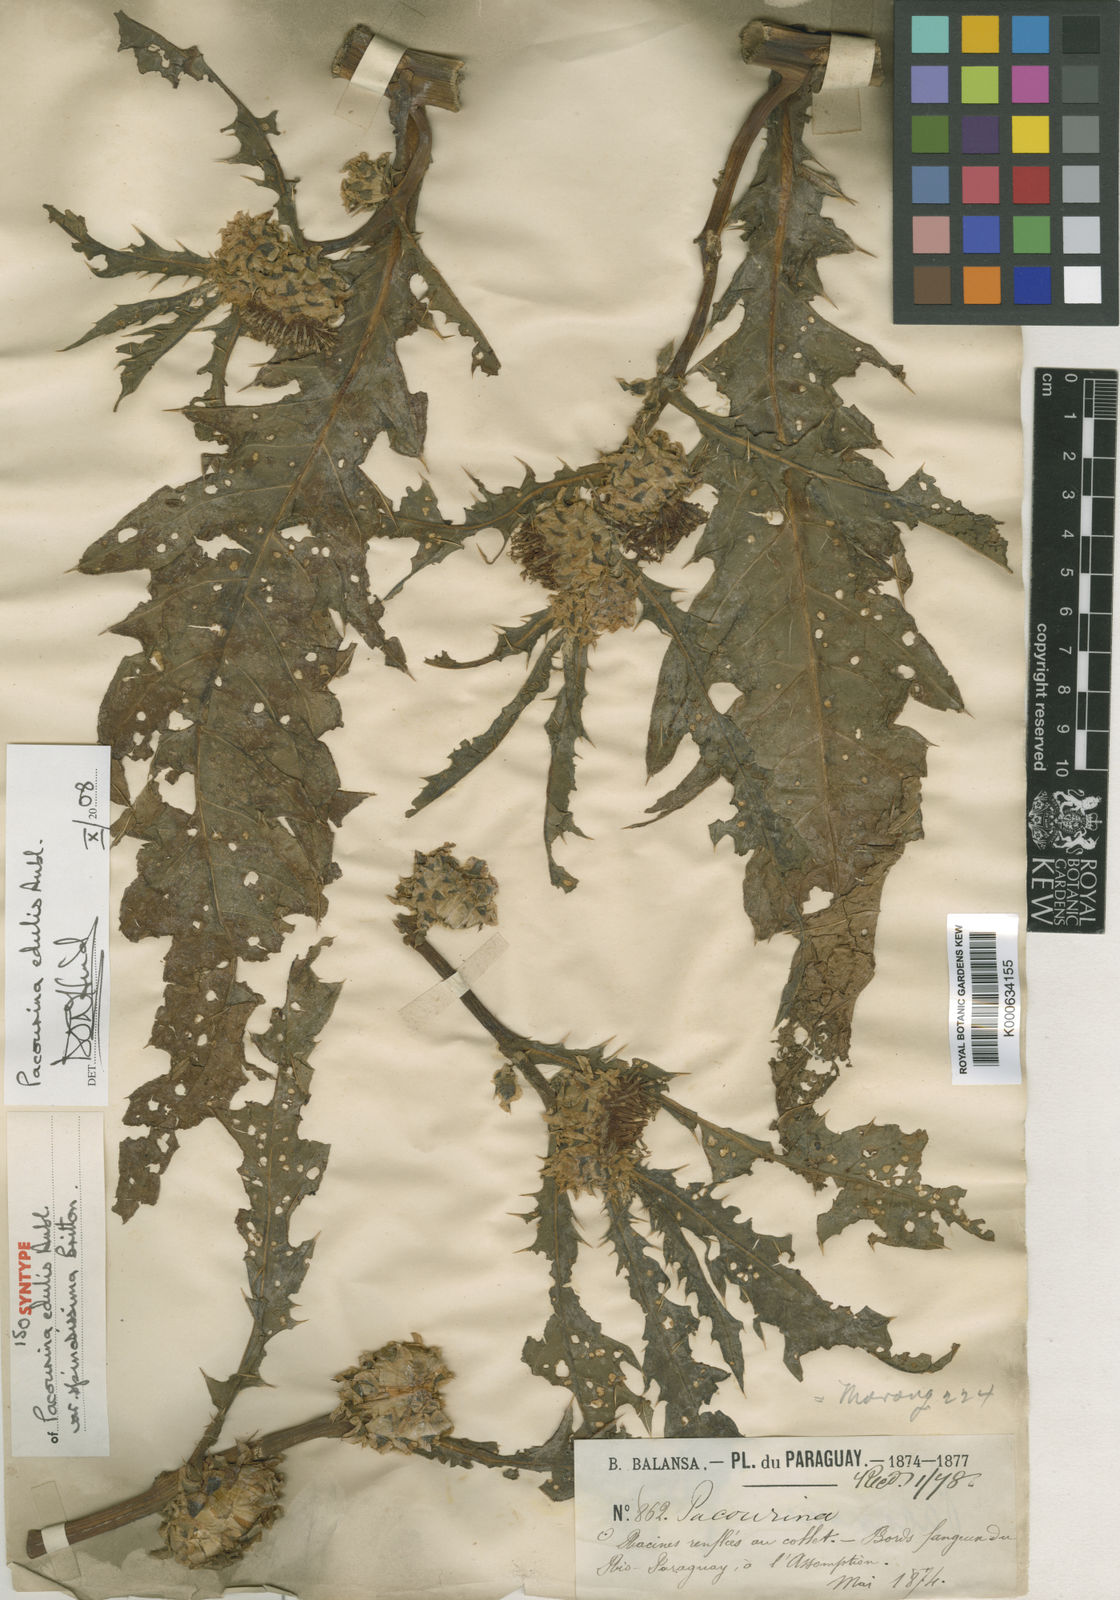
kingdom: Plantae
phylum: Tracheophyta
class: Magnoliopsida
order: Asterales
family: Asteraceae
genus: Pacourina
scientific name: Pacourina edulis
